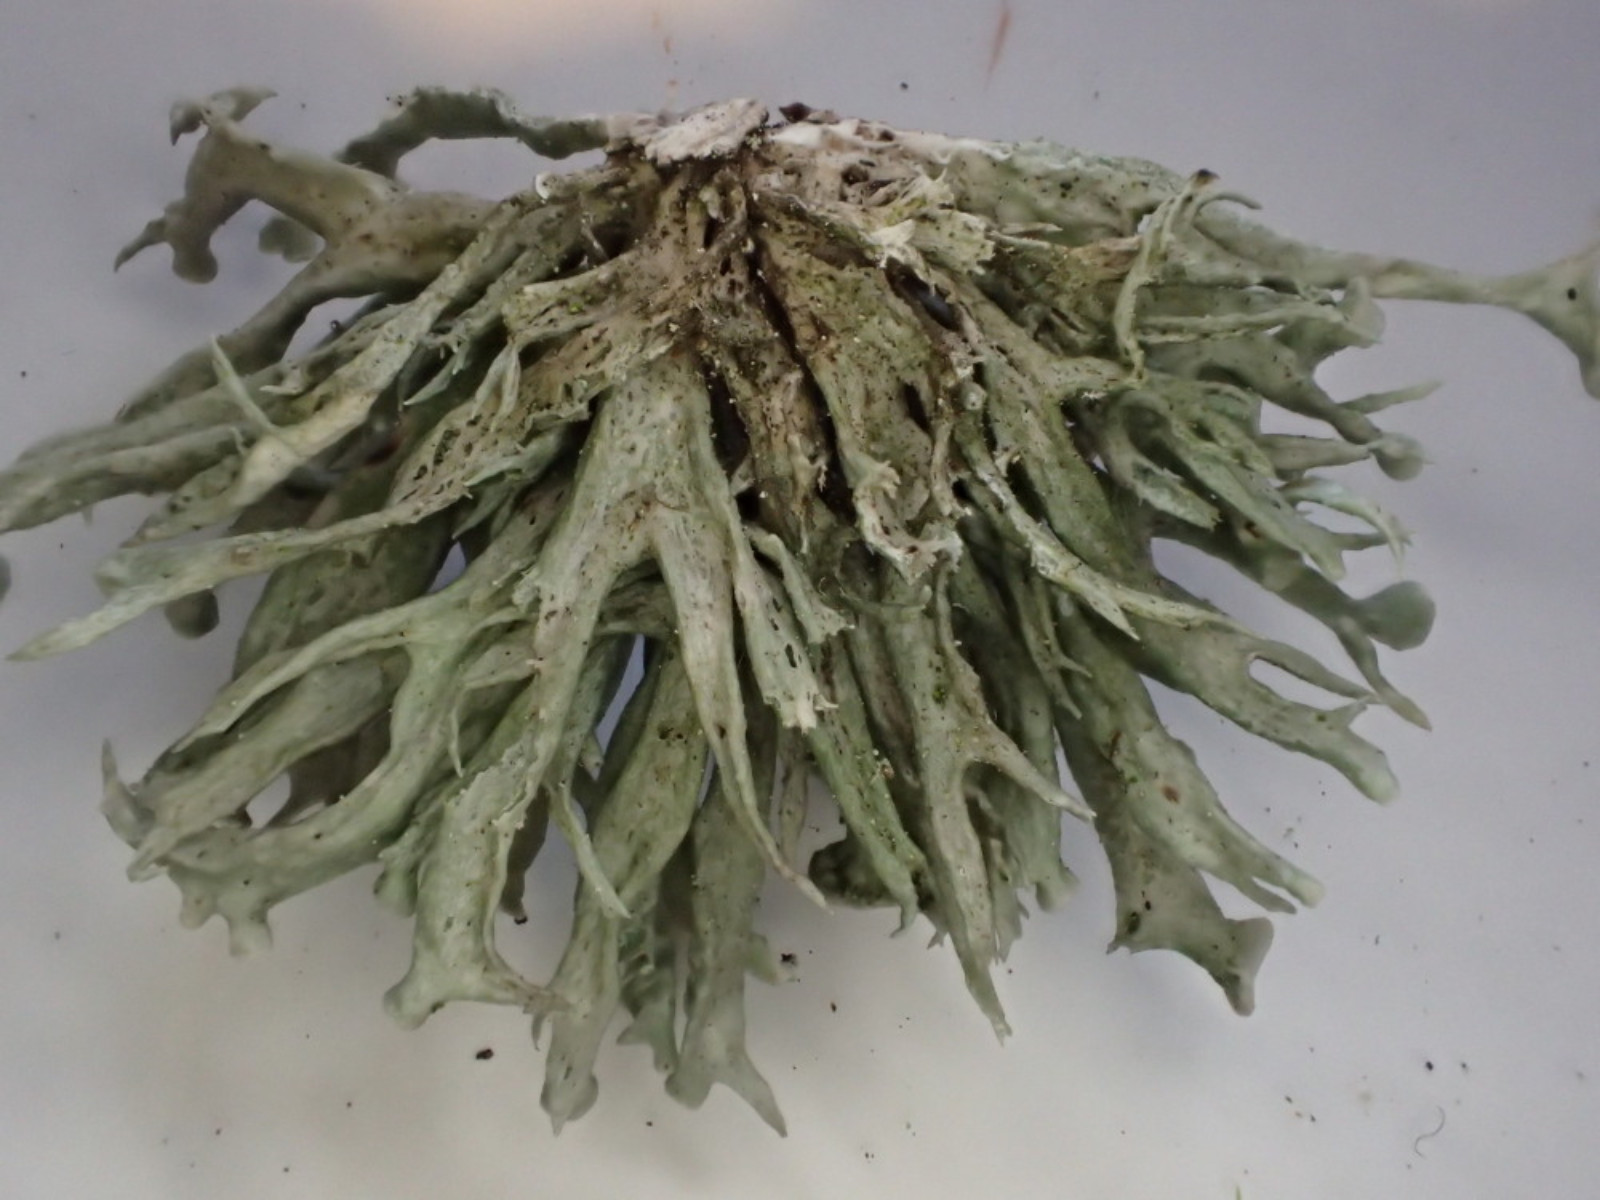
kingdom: Fungi
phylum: Ascomycota
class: Lecanoromycetes
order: Lecanorales
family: Ramalinaceae
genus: Ramalina
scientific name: Ramalina fastigiata
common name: tue-grenlav
